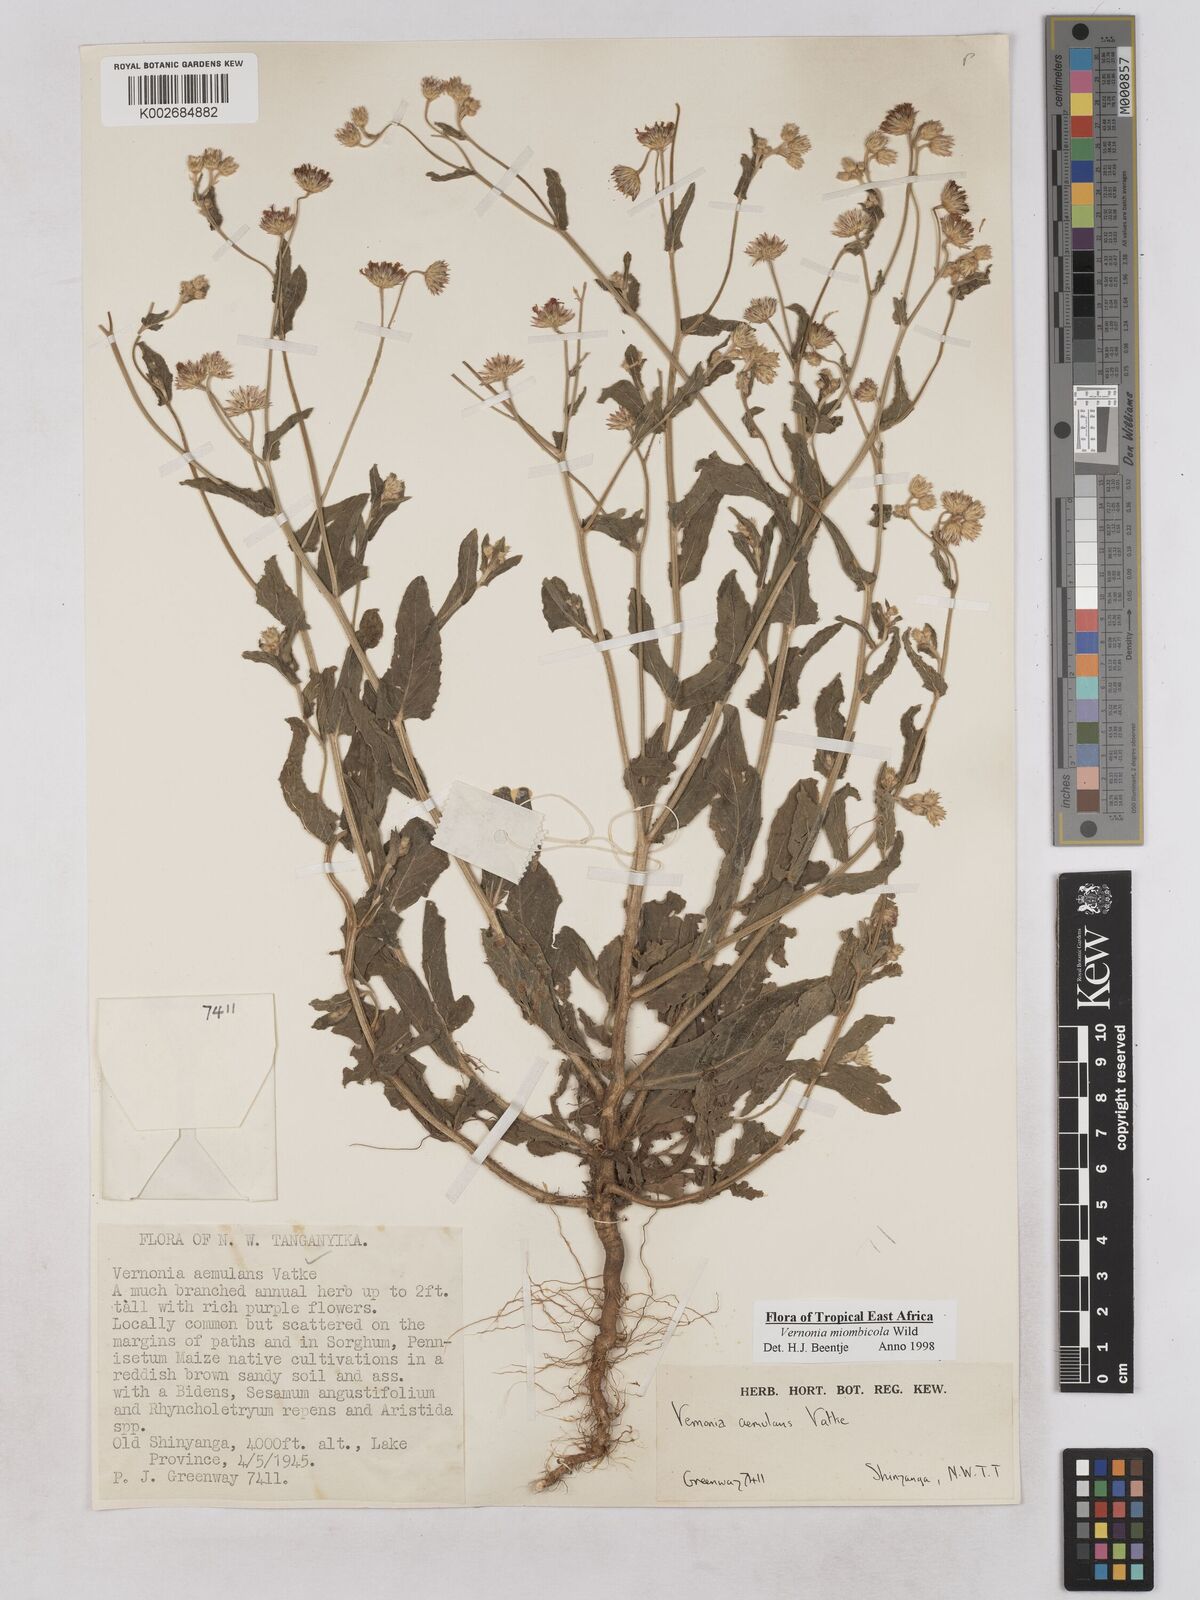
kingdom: Plantae
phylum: Tracheophyta
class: Magnoliopsida
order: Asterales
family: Asteraceae
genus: Vernonia
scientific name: Vernonia miombicola
